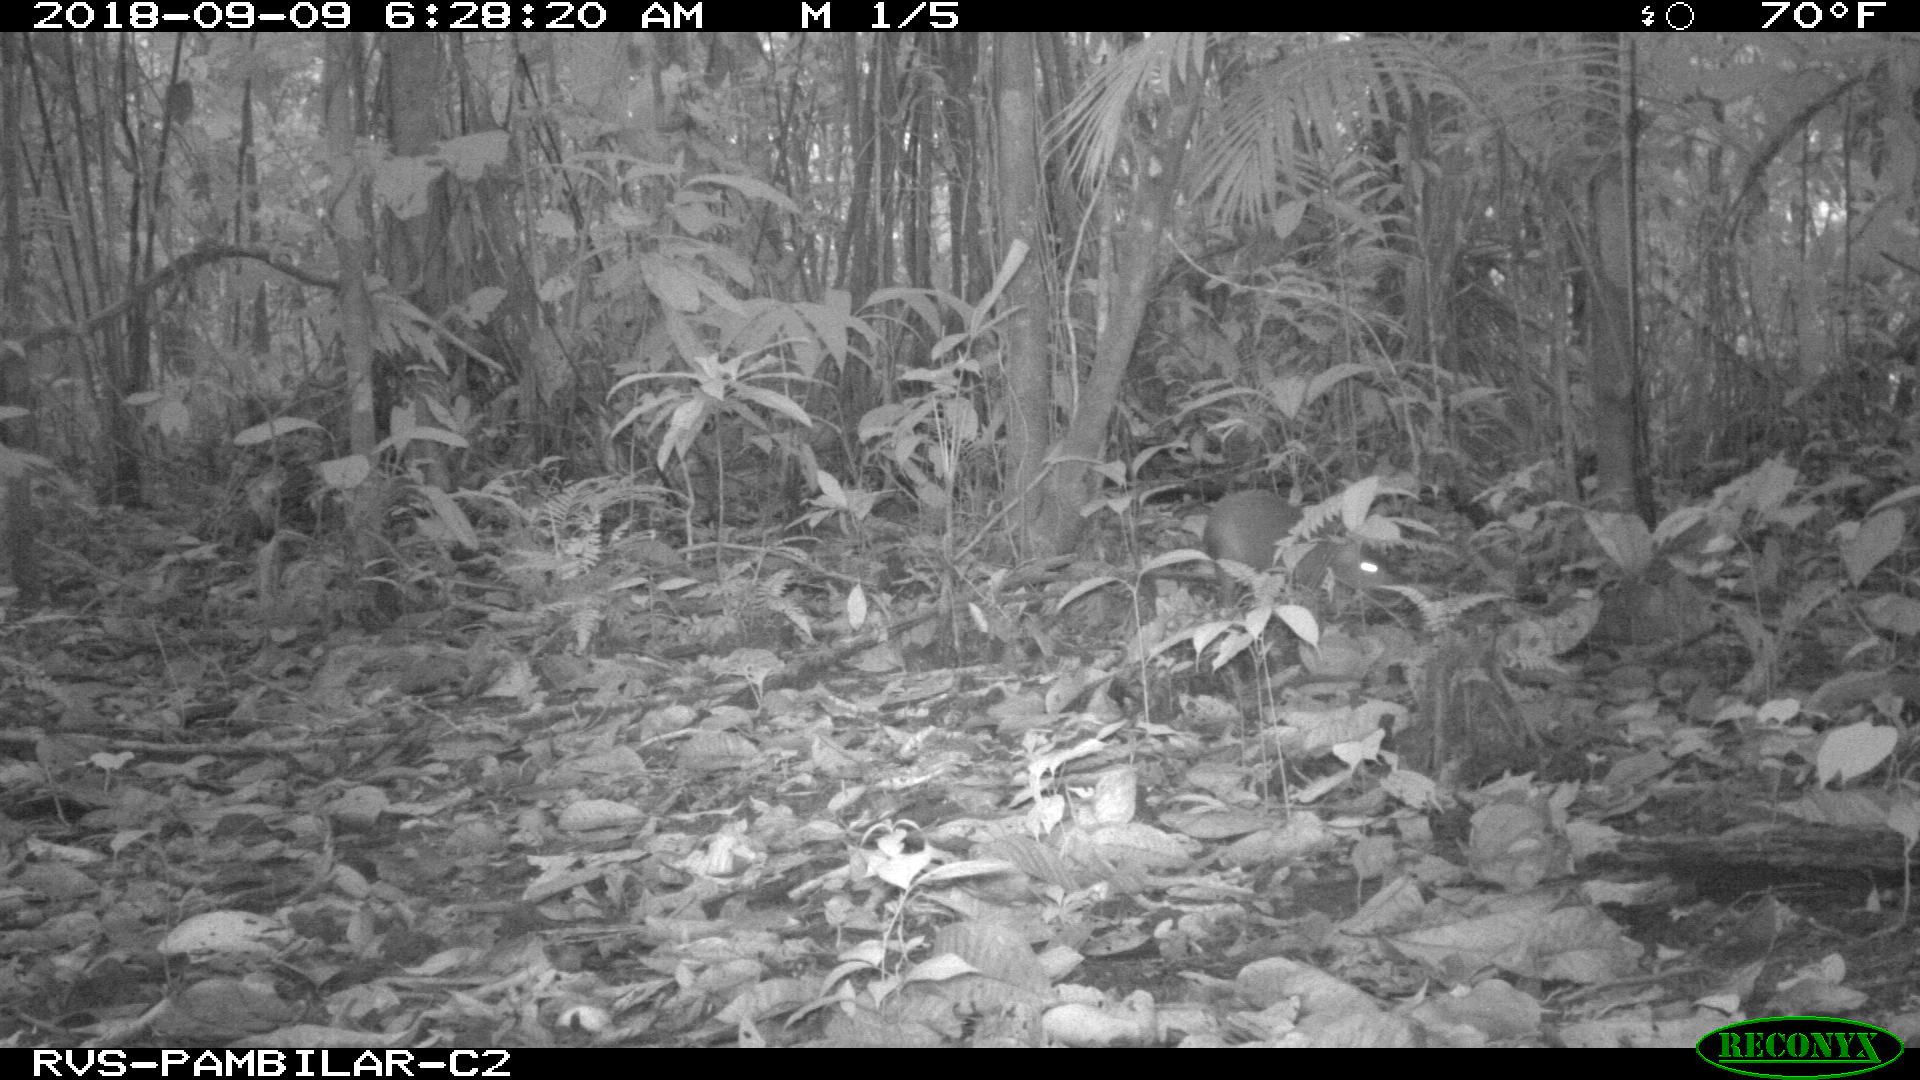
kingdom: Animalia
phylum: Chordata
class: Mammalia
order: Rodentia
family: Dasyproctidae
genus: Dasyprocta
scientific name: Dasyprocta punctata
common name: Central american agouti
